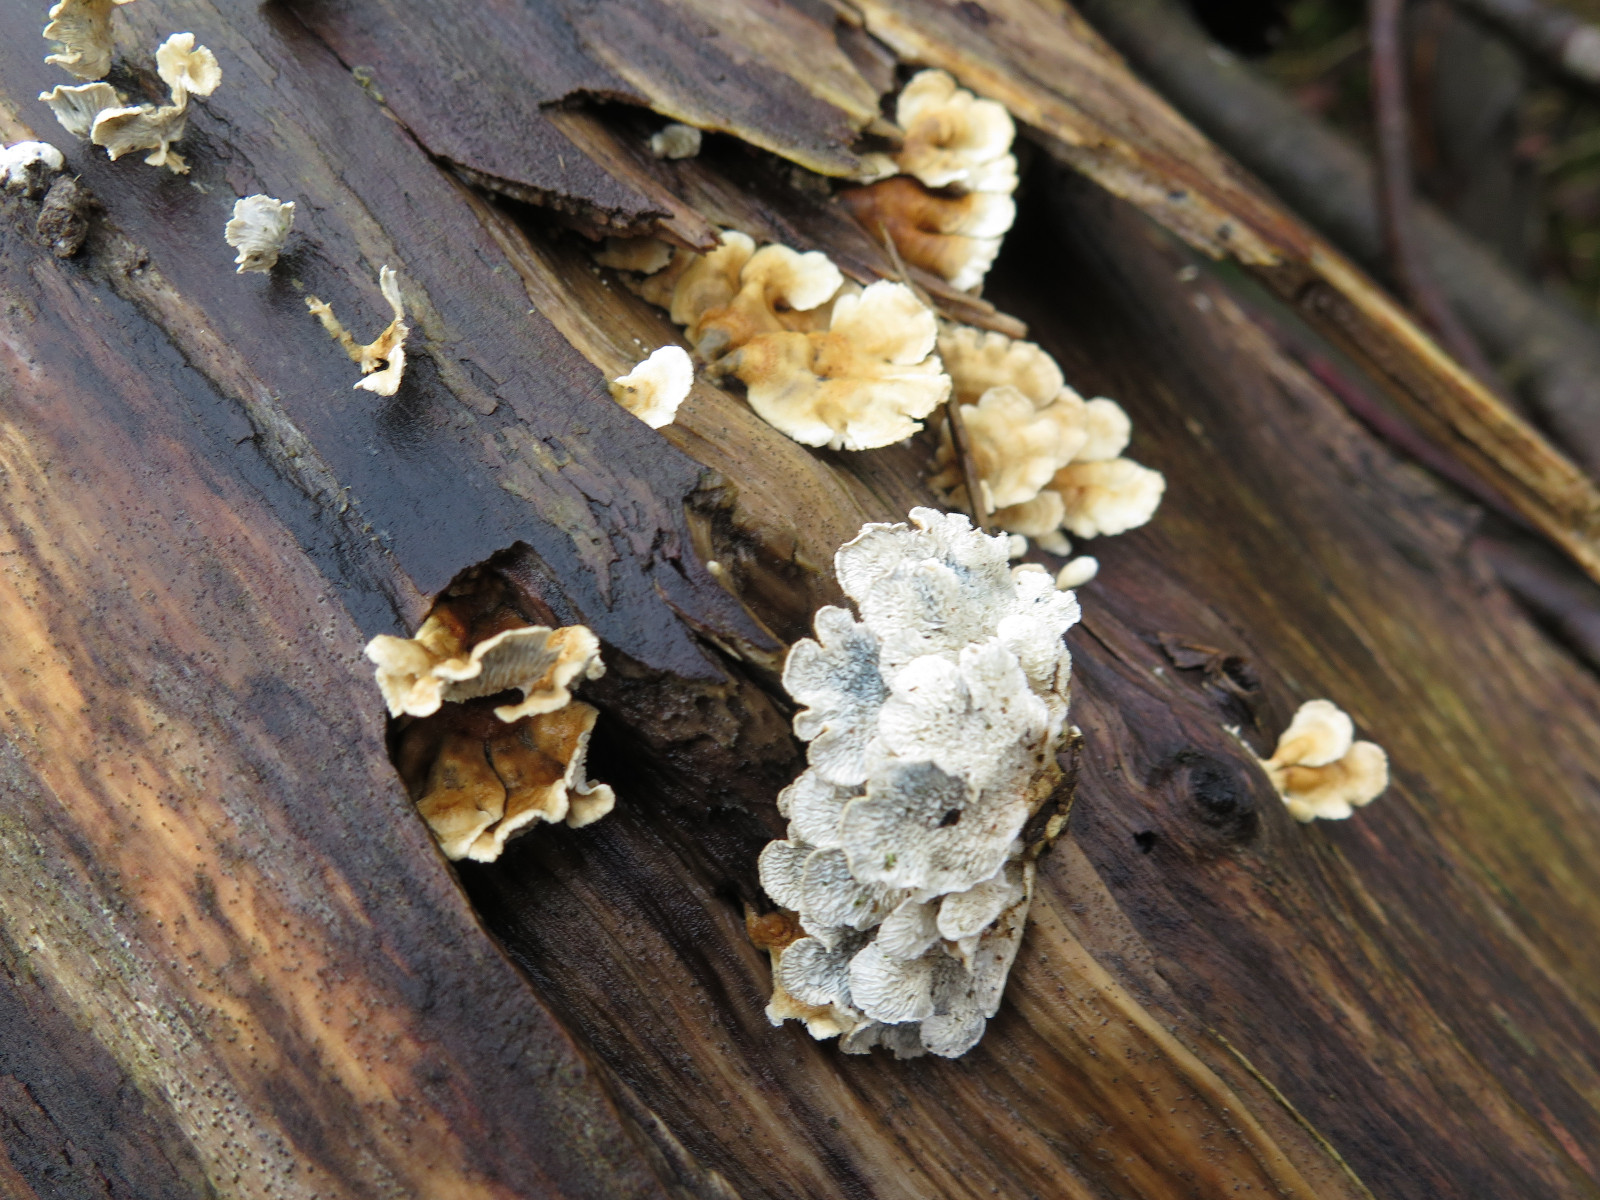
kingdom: Fungi
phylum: Basidiomycota
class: Agaricomycetes
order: Amylocorticiales
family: Amylocorticiaceae
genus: Plicaturopsis
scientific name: Plicaturopsis crispa
